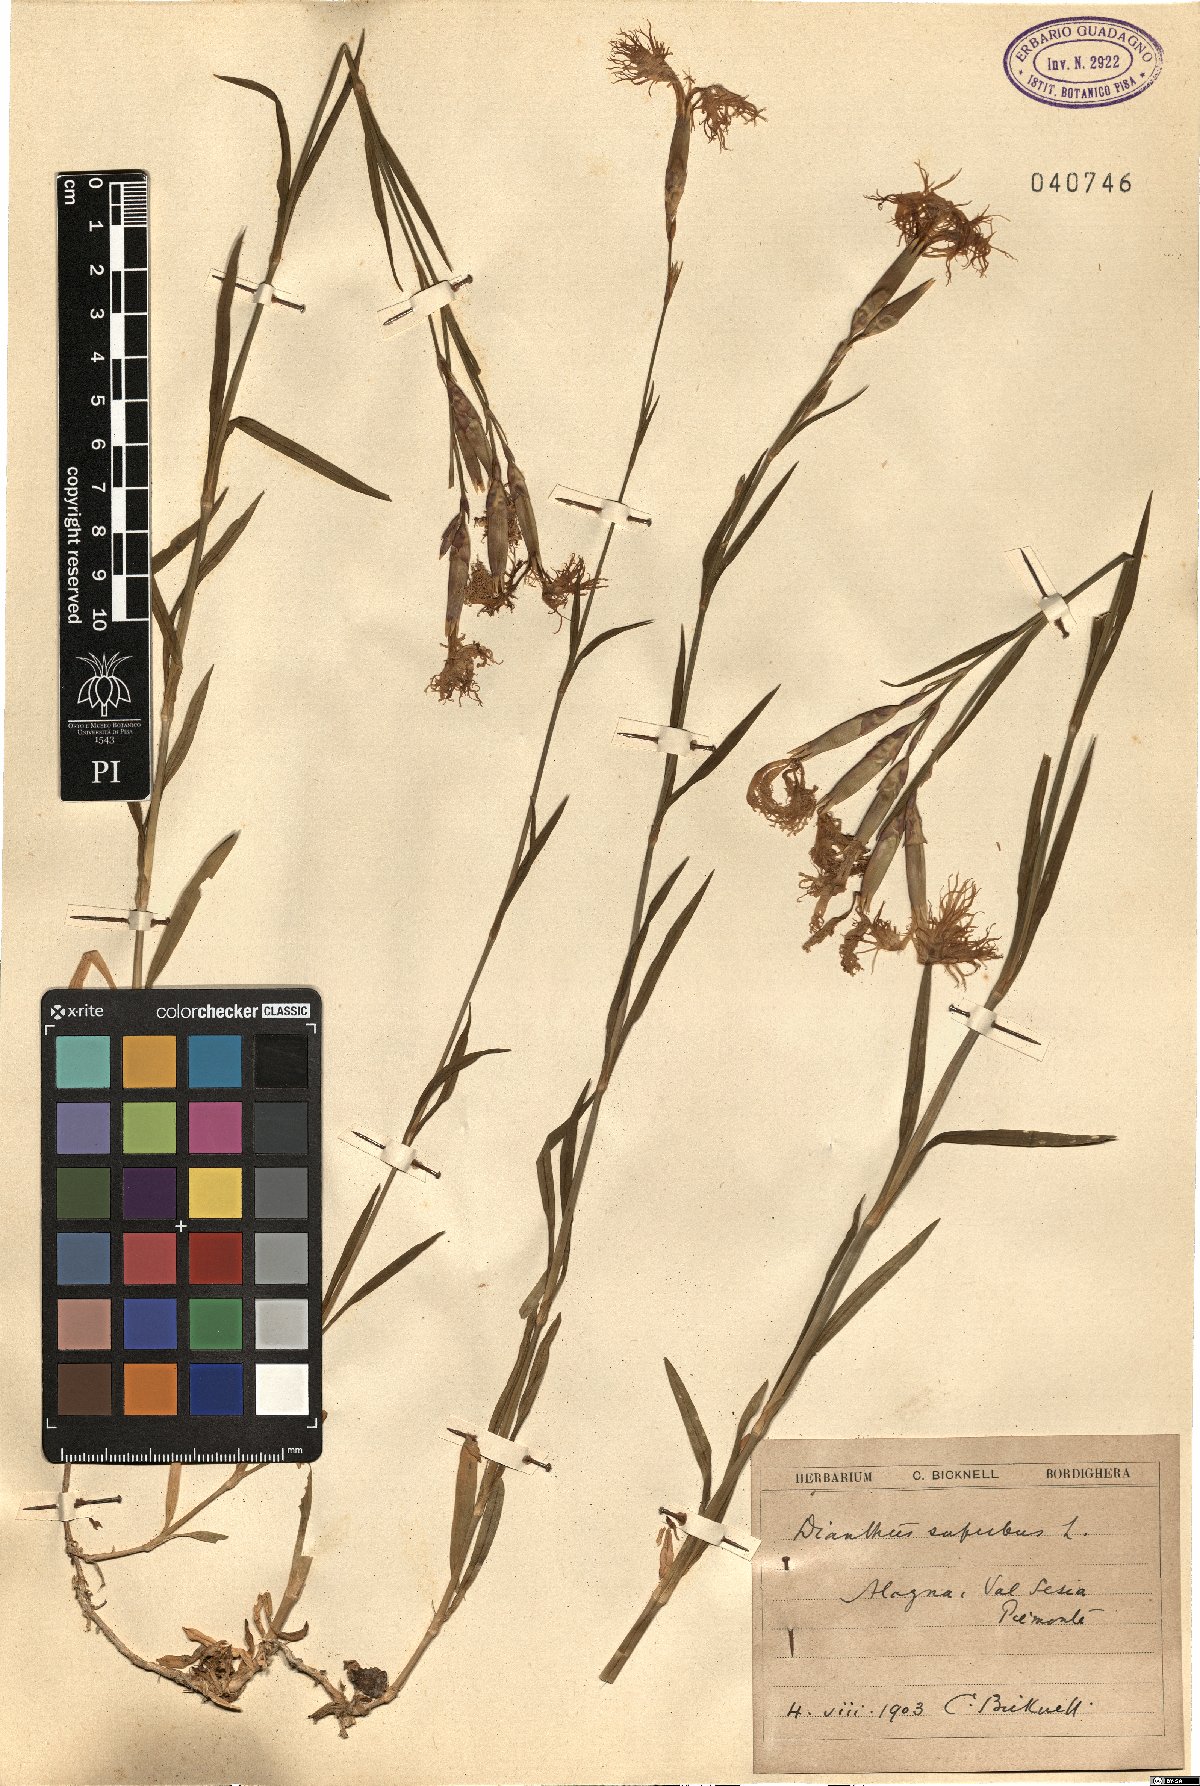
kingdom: Plantae
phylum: Tracheophyta
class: Magnoliopsida
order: Caryophyllales
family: Caryophyllaceae
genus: Dianthus
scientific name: Dianthus superbus
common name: Fringed pink
